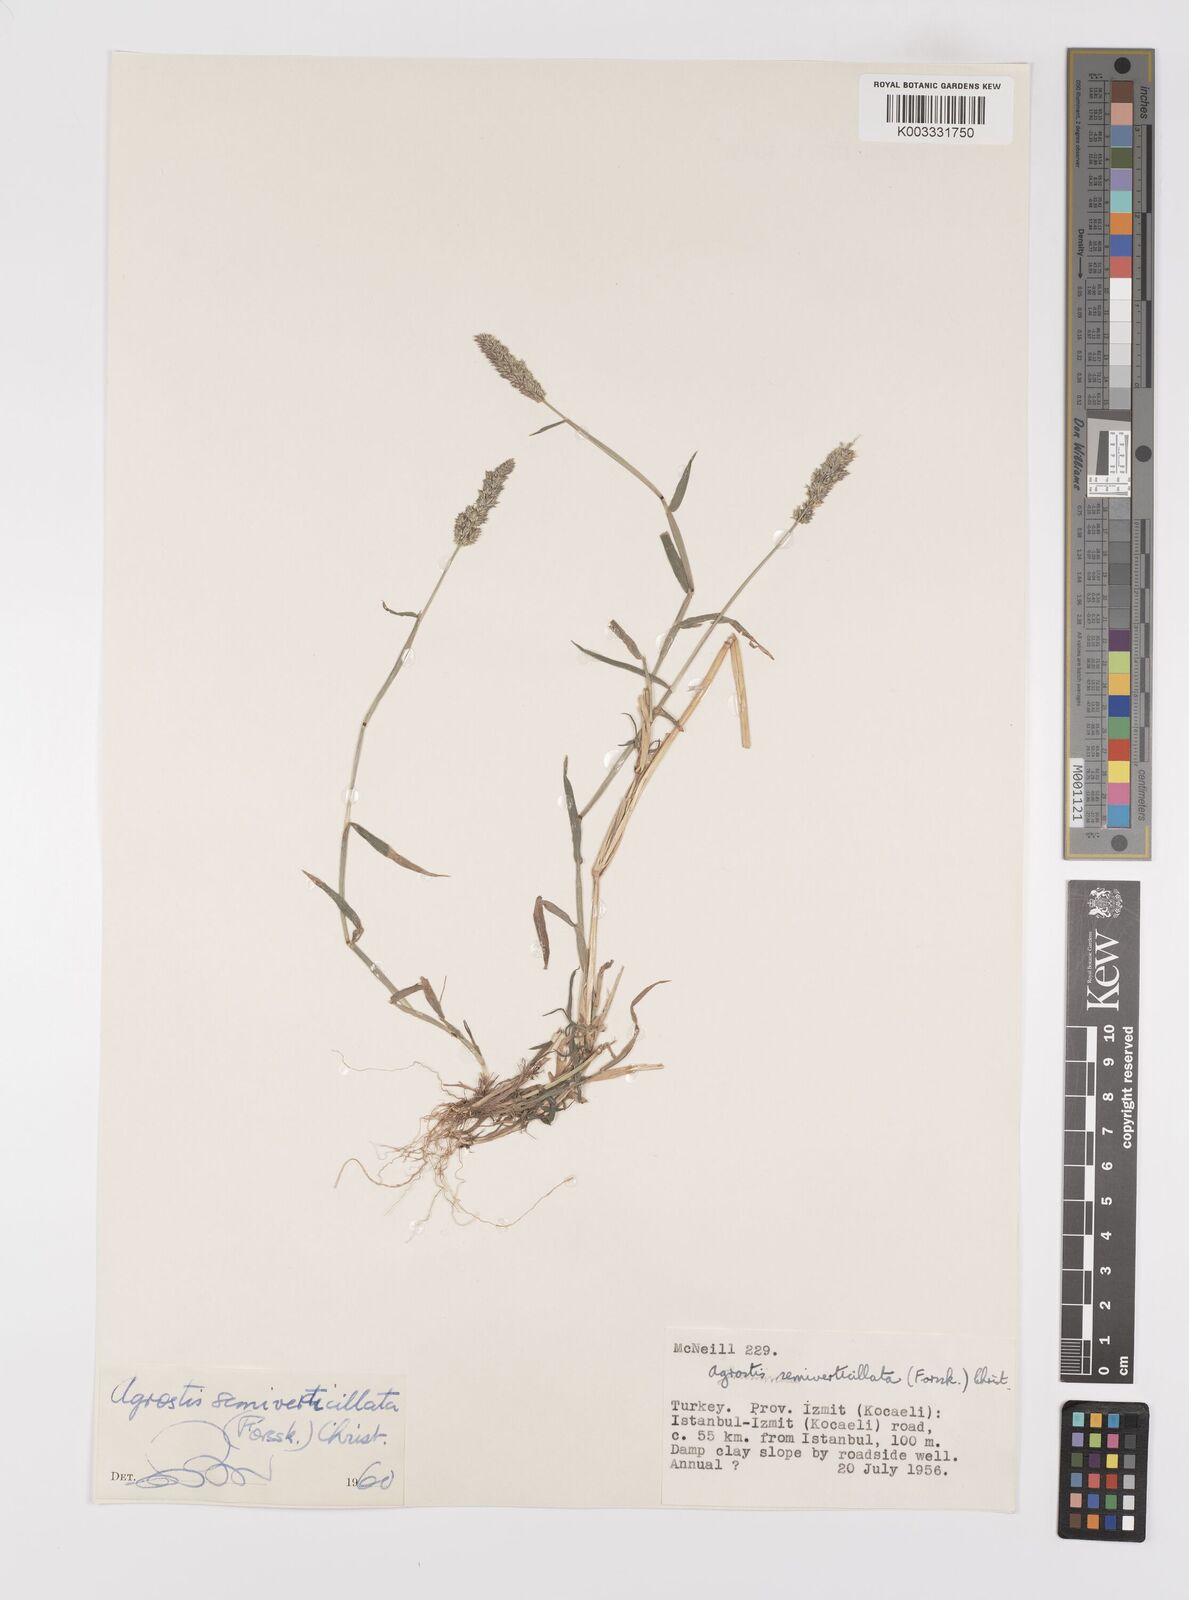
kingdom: Plantae
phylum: Tracheophyta
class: Liliopsida
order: Poales
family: Poaceae
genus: Polypogon
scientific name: Polypogon viridis
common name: Water bent
